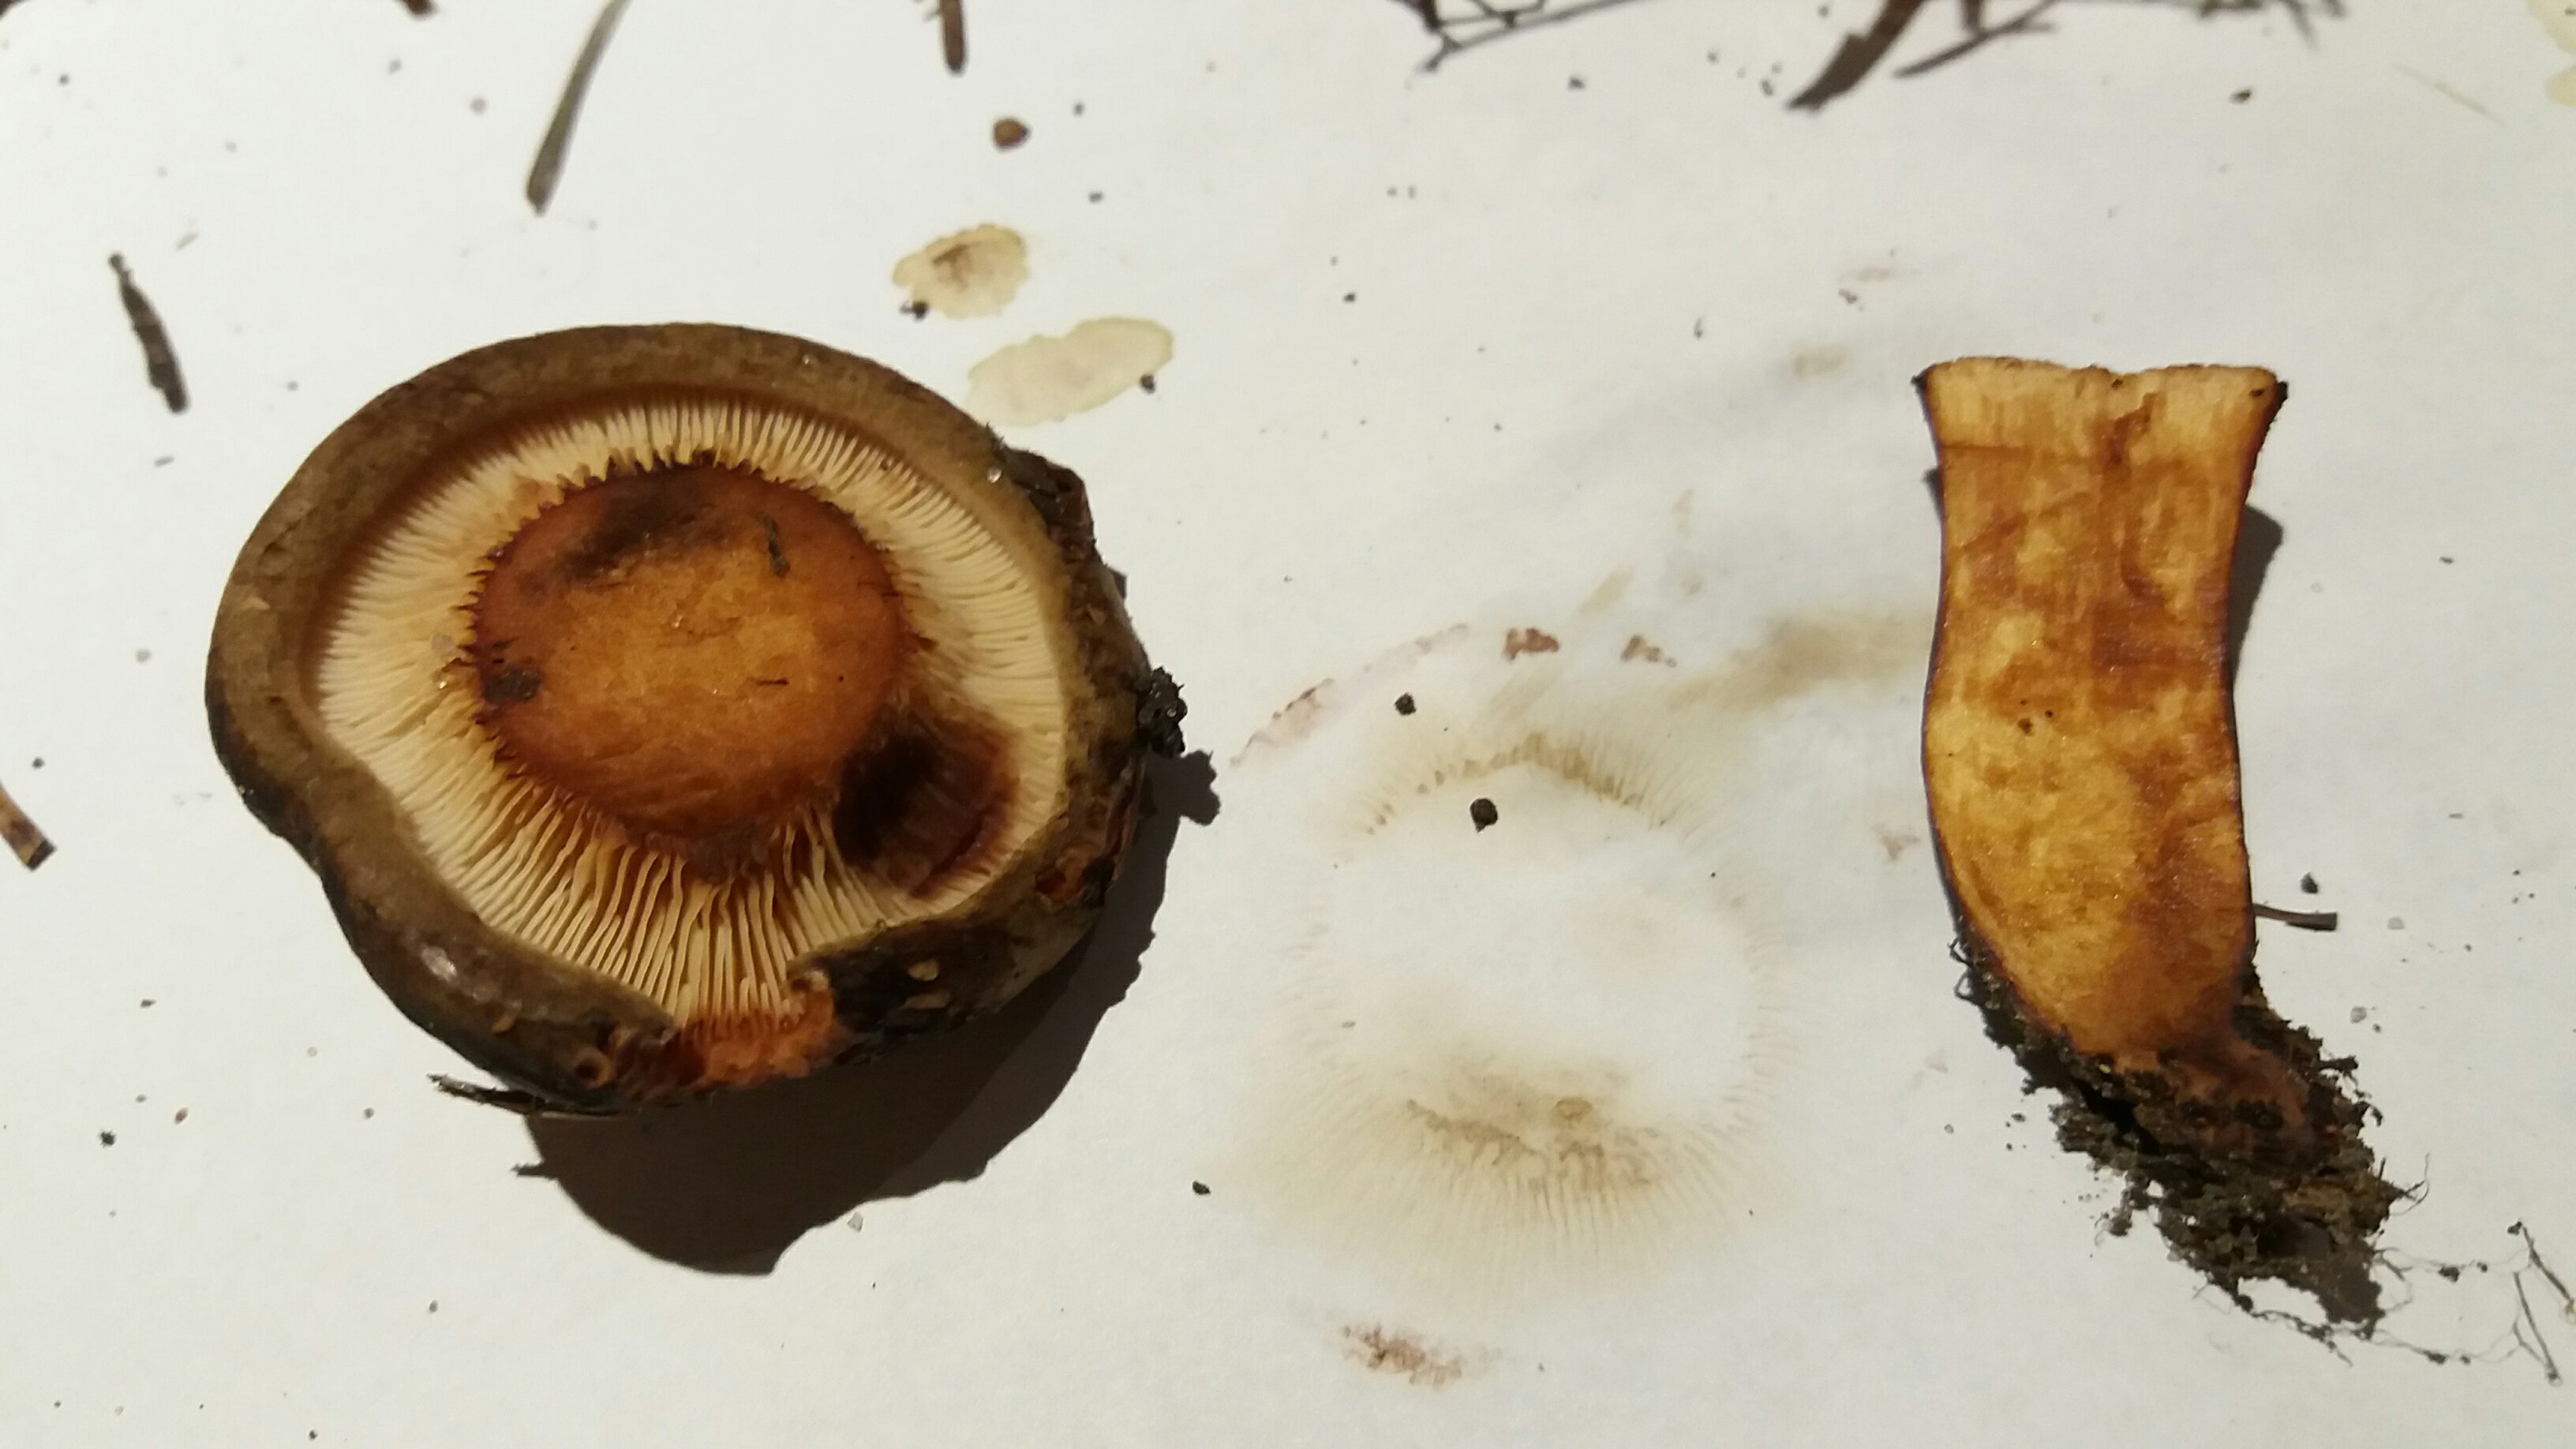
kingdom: Fungi
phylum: Basidiomycota
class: Agaricomycetes
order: Boletales
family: Paxillaceae
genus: Paxillus
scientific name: Paxillus rubicundulus
